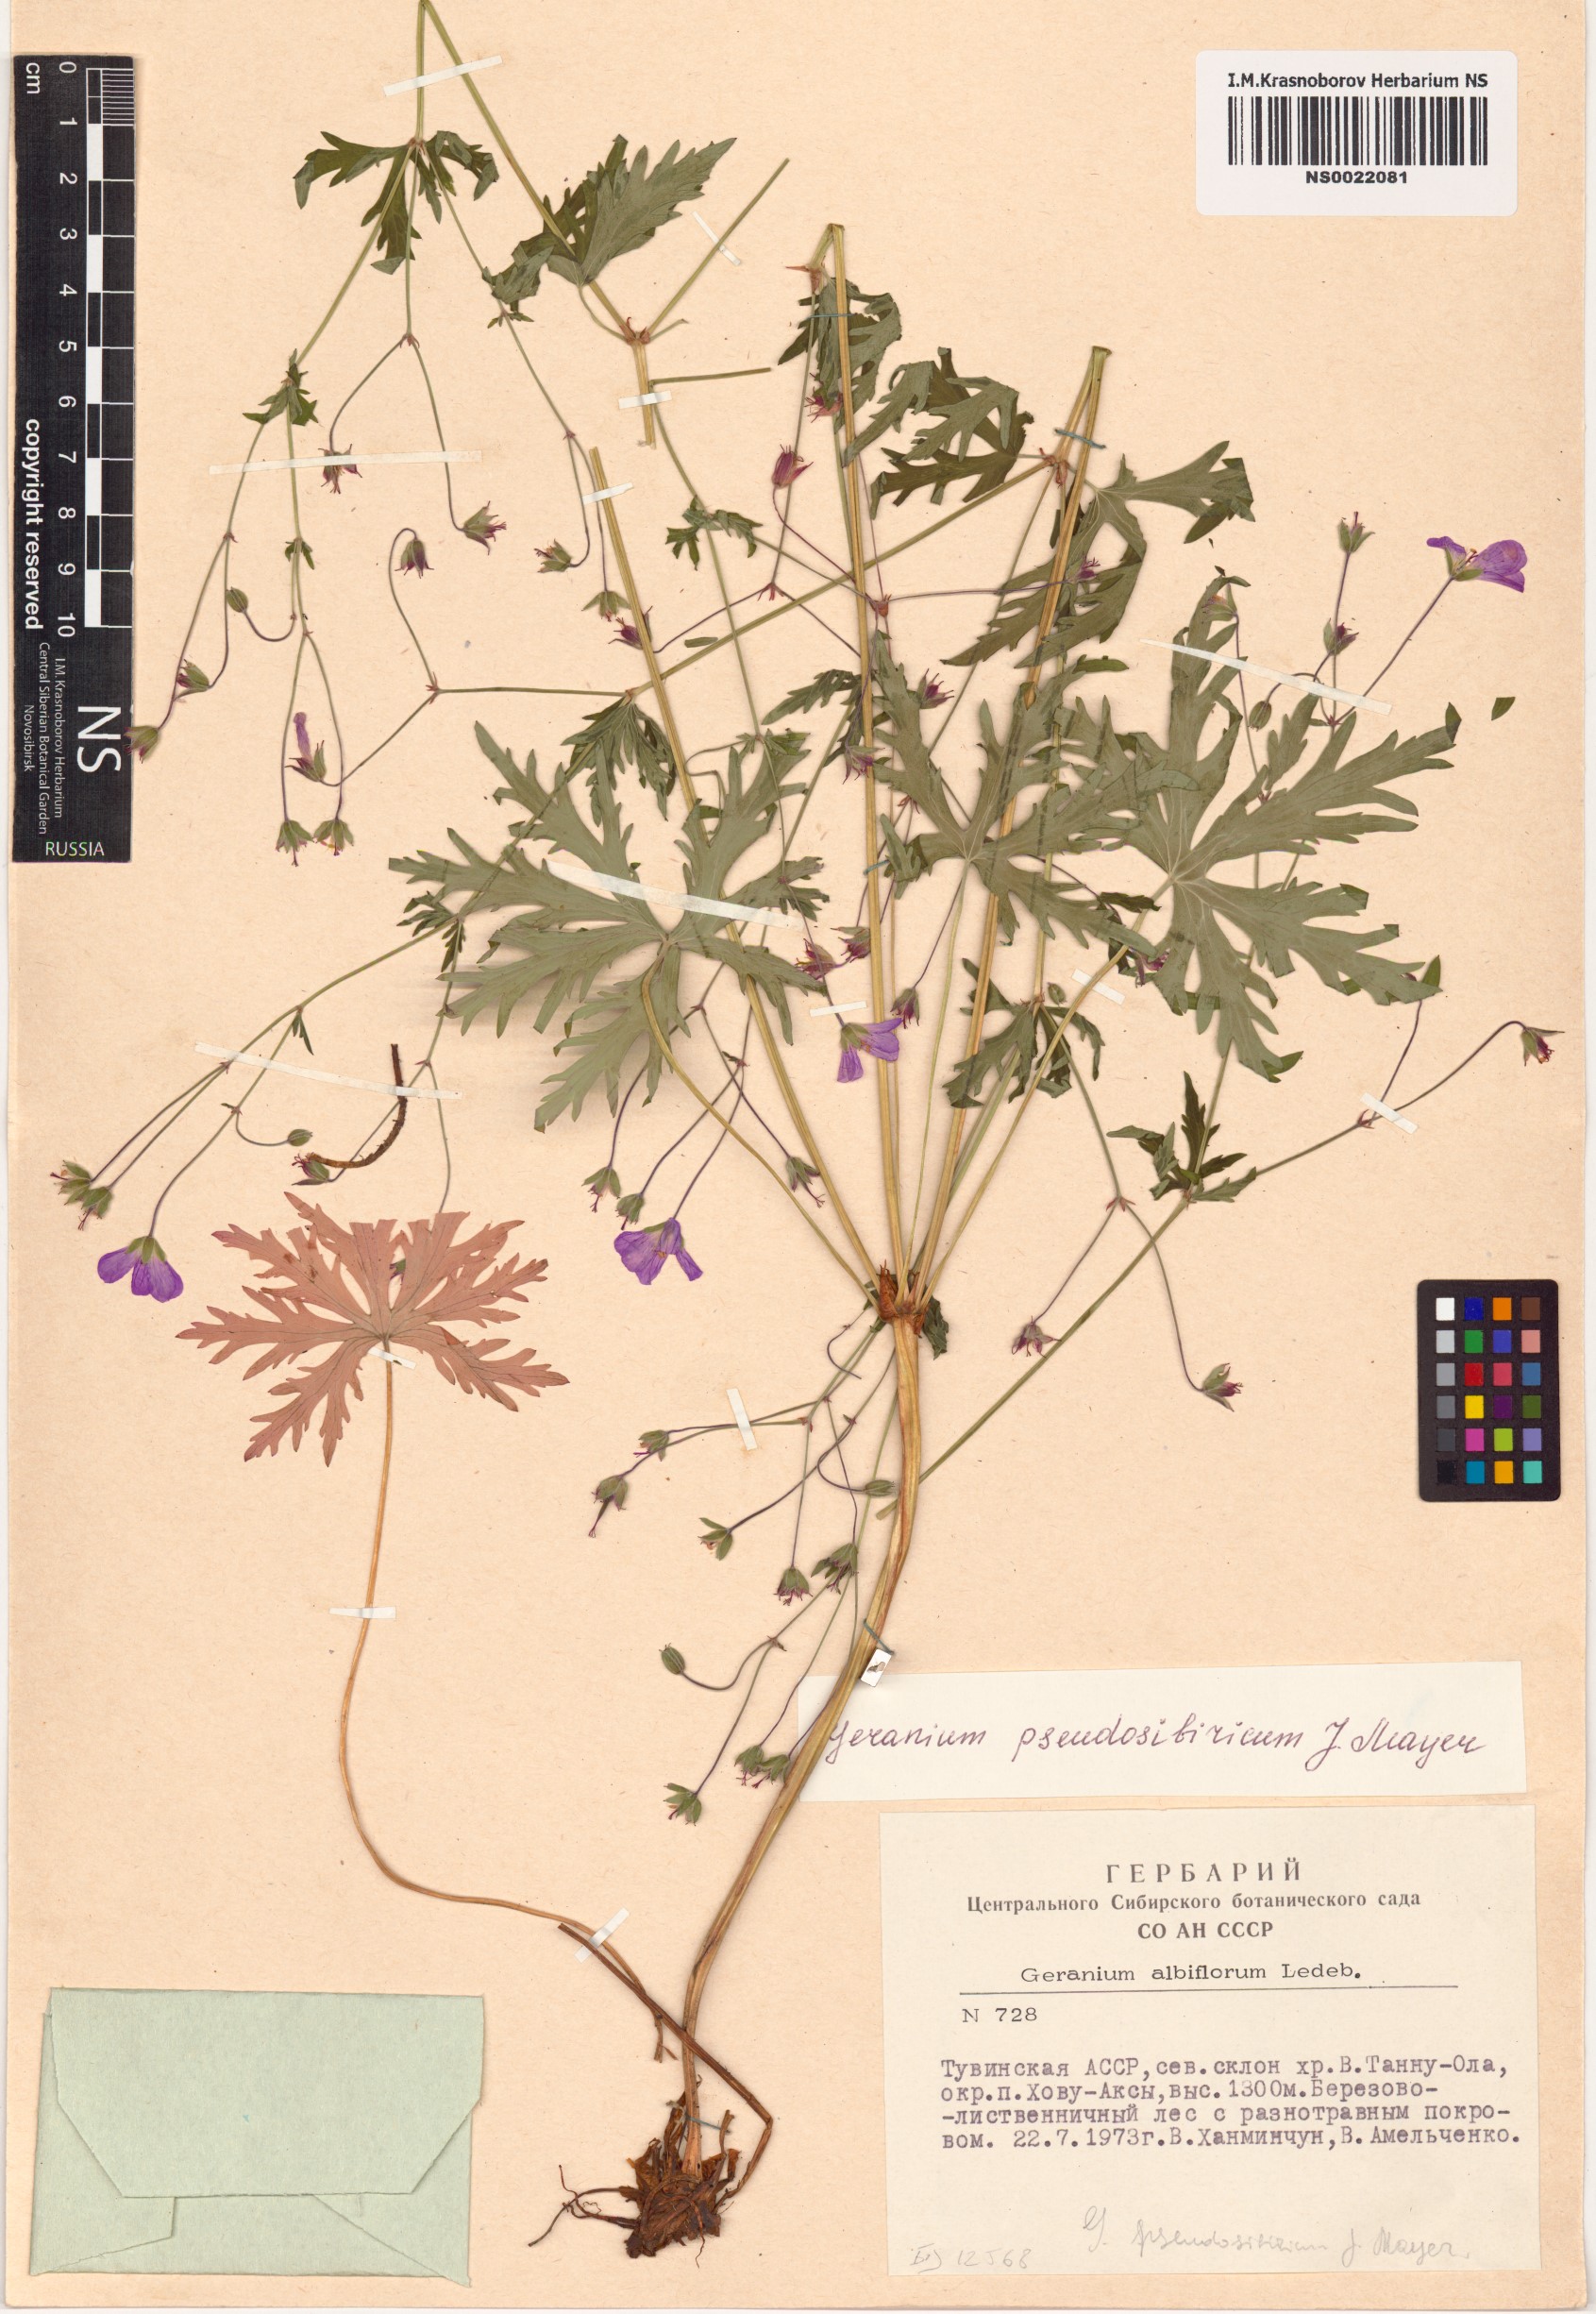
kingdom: Plantae
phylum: Tracheophyta
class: Magnoliopsida
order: Geraniales
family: Geraniaceae
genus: Geranium
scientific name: Geranium pseudosibiricum
